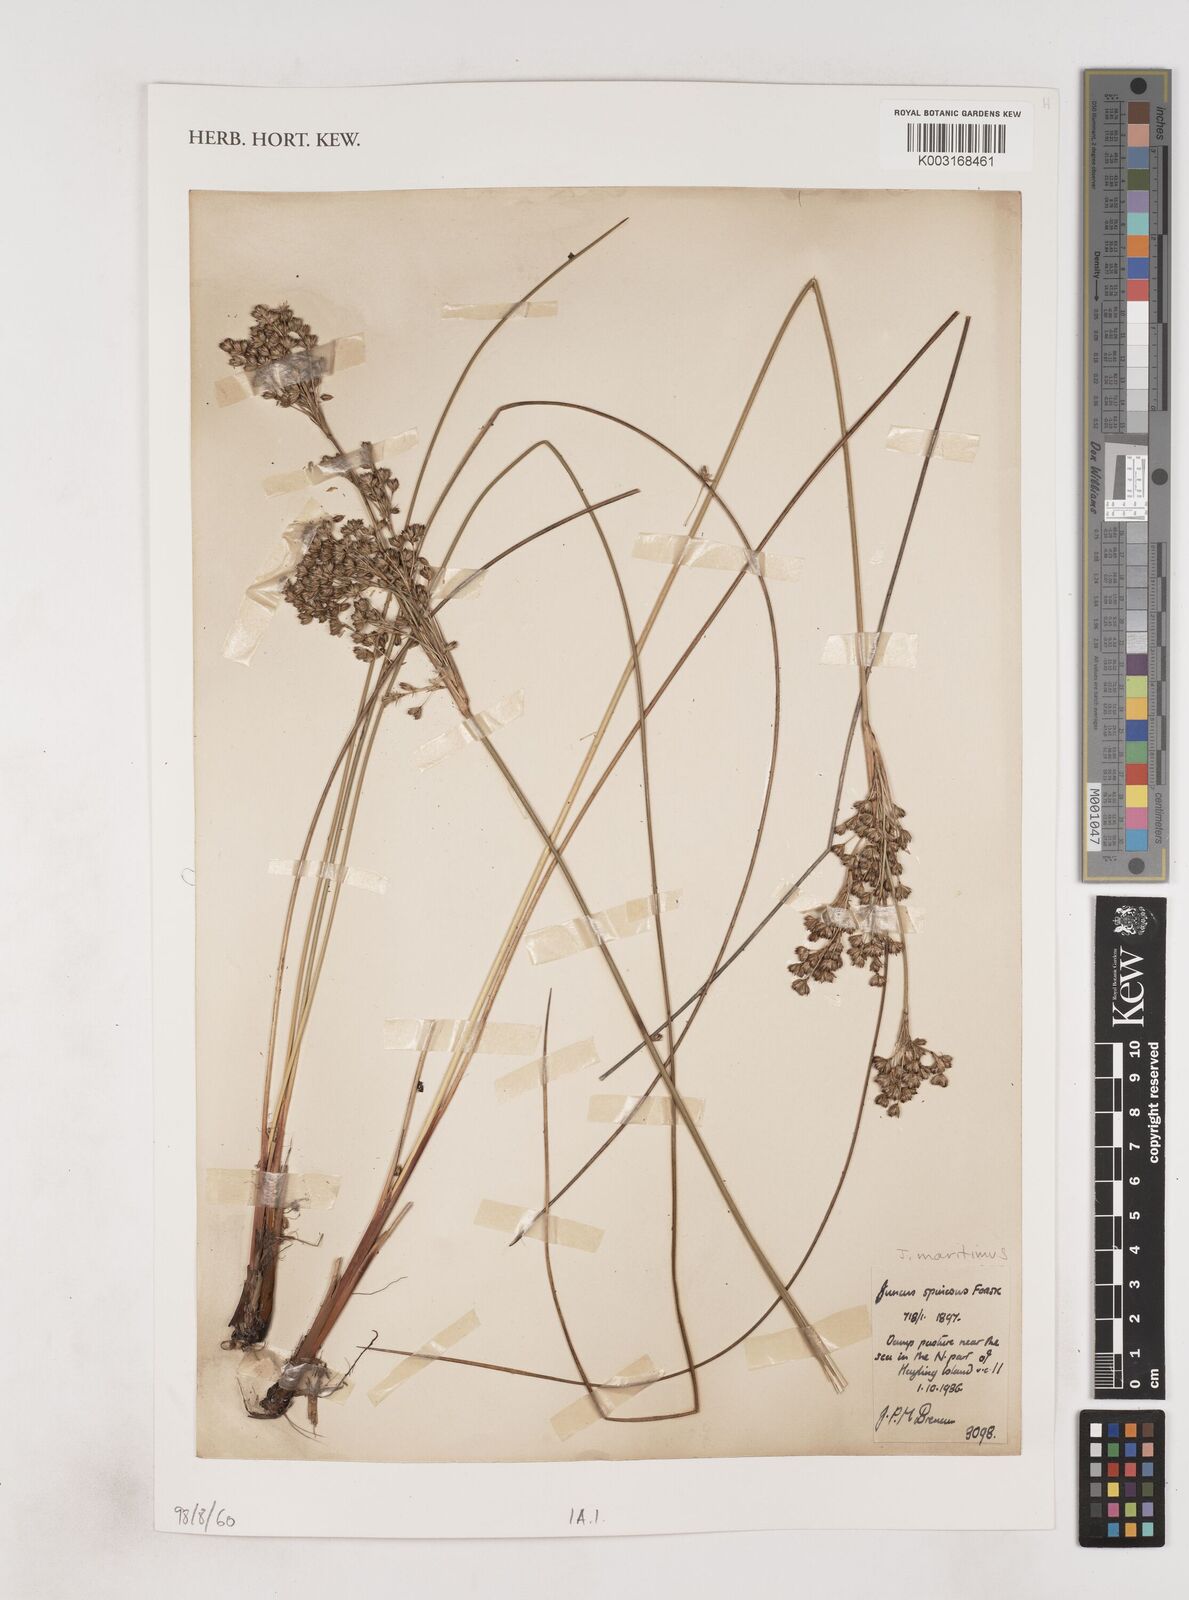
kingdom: Plantae
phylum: Tracheophyta
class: Liliopsida
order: Poales
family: Juncaceae
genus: Juncus
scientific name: Juncus maritimus
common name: Sea rush
